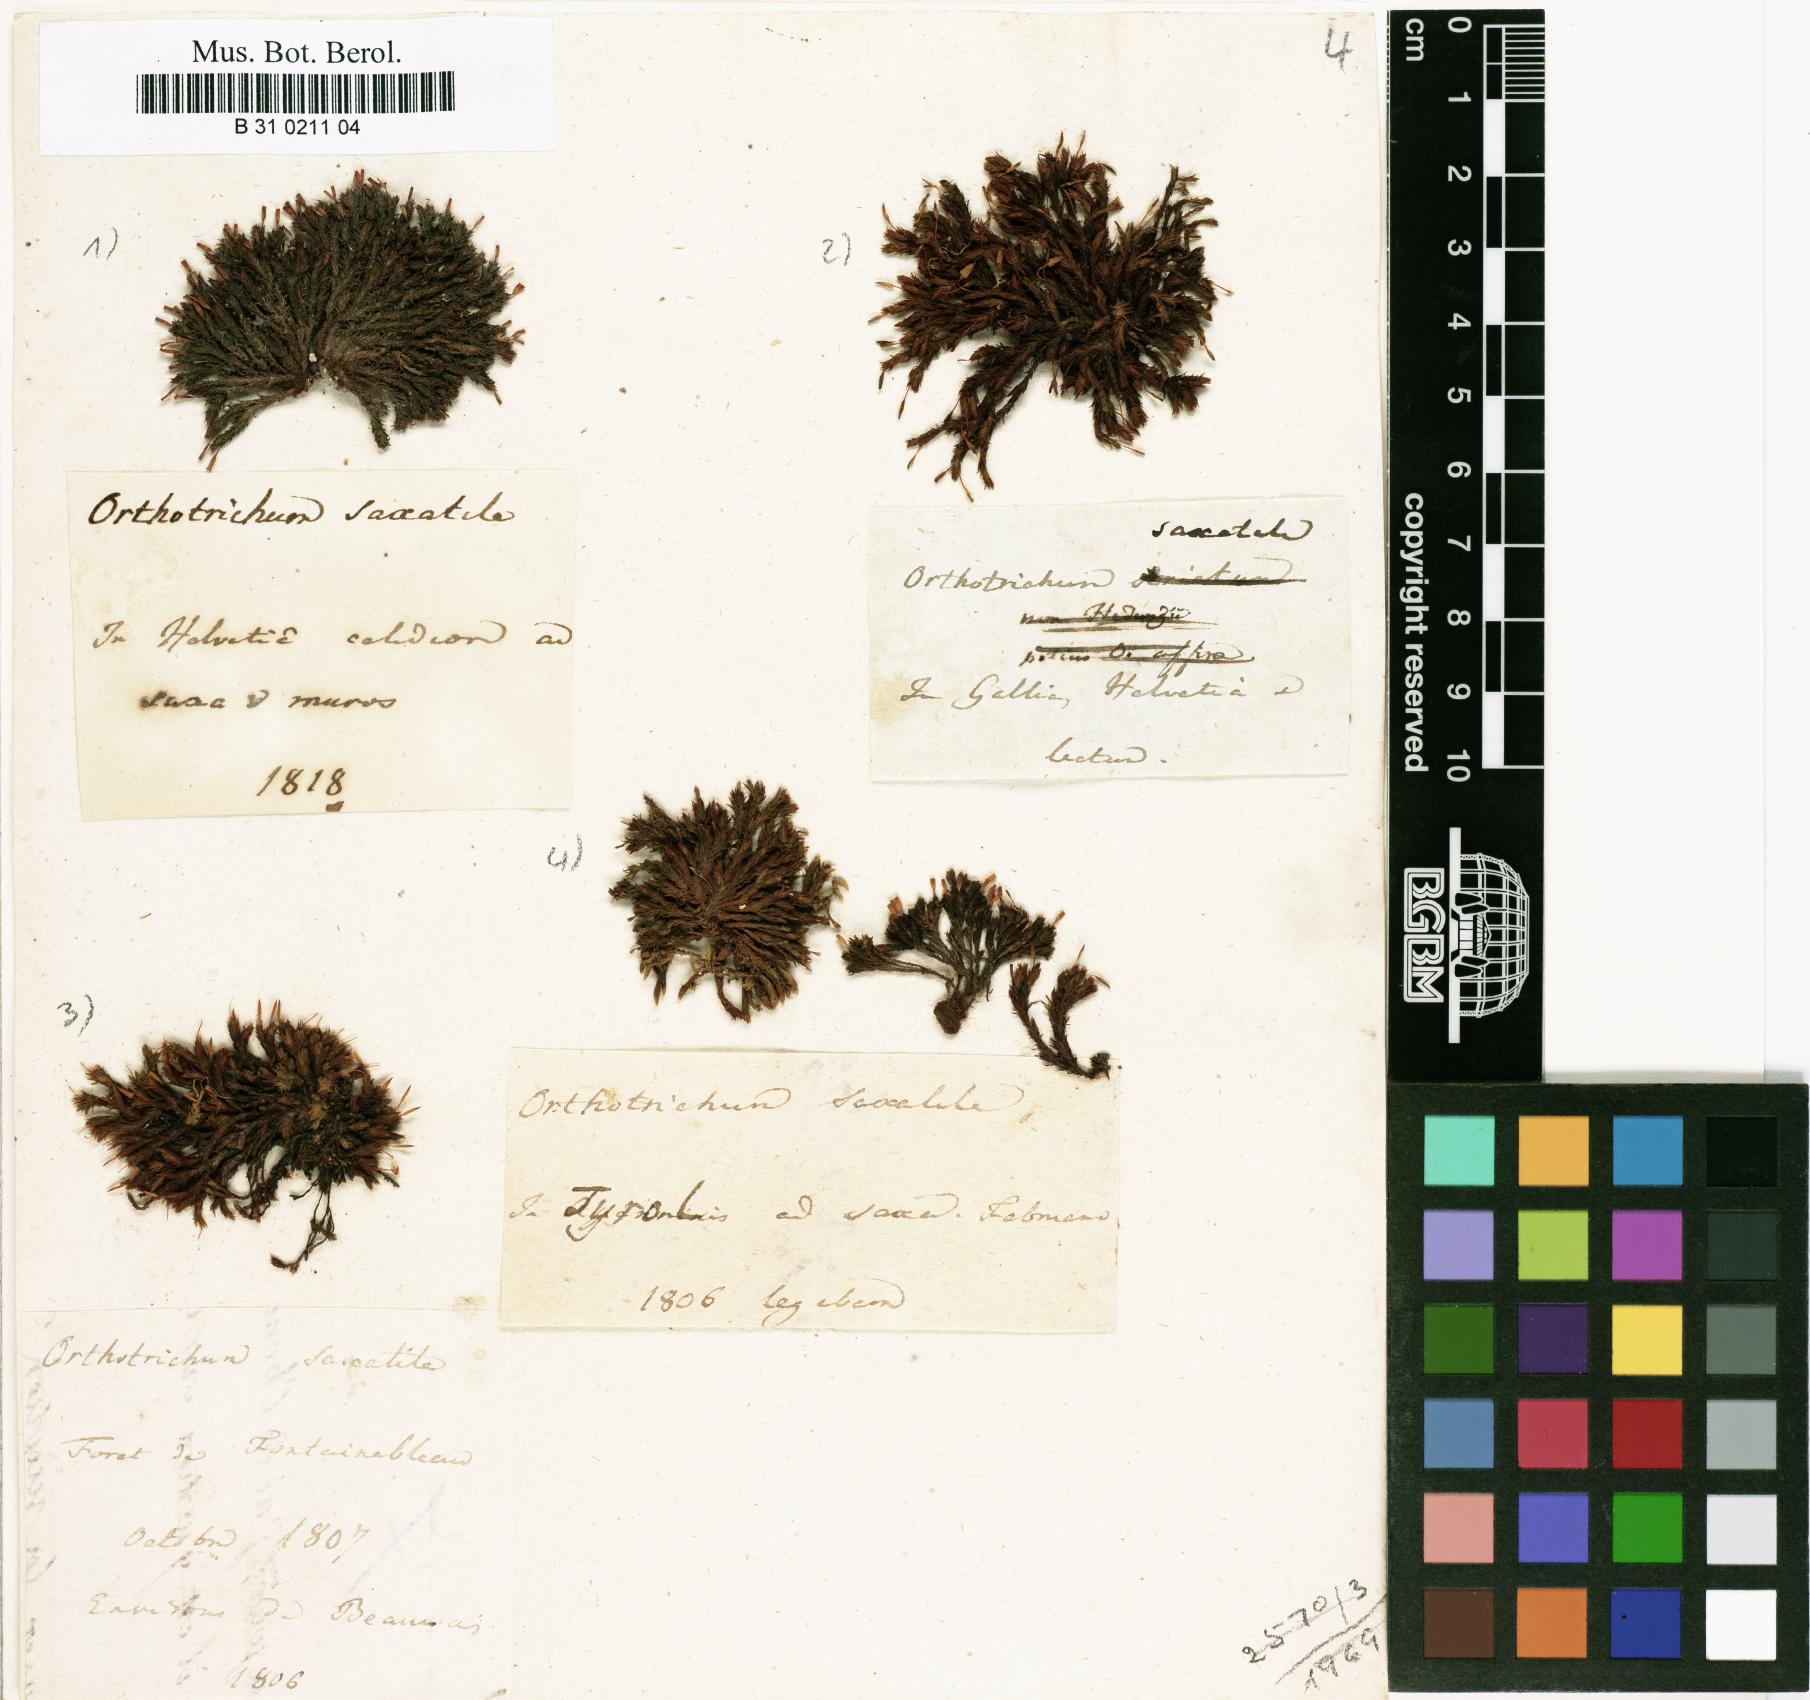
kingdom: Plantae
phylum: Bryophyta
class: Bryopsida
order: Orthotrichales
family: Orthotrichaceae
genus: Orthotrichum
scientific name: Orthotrichum anomalum
